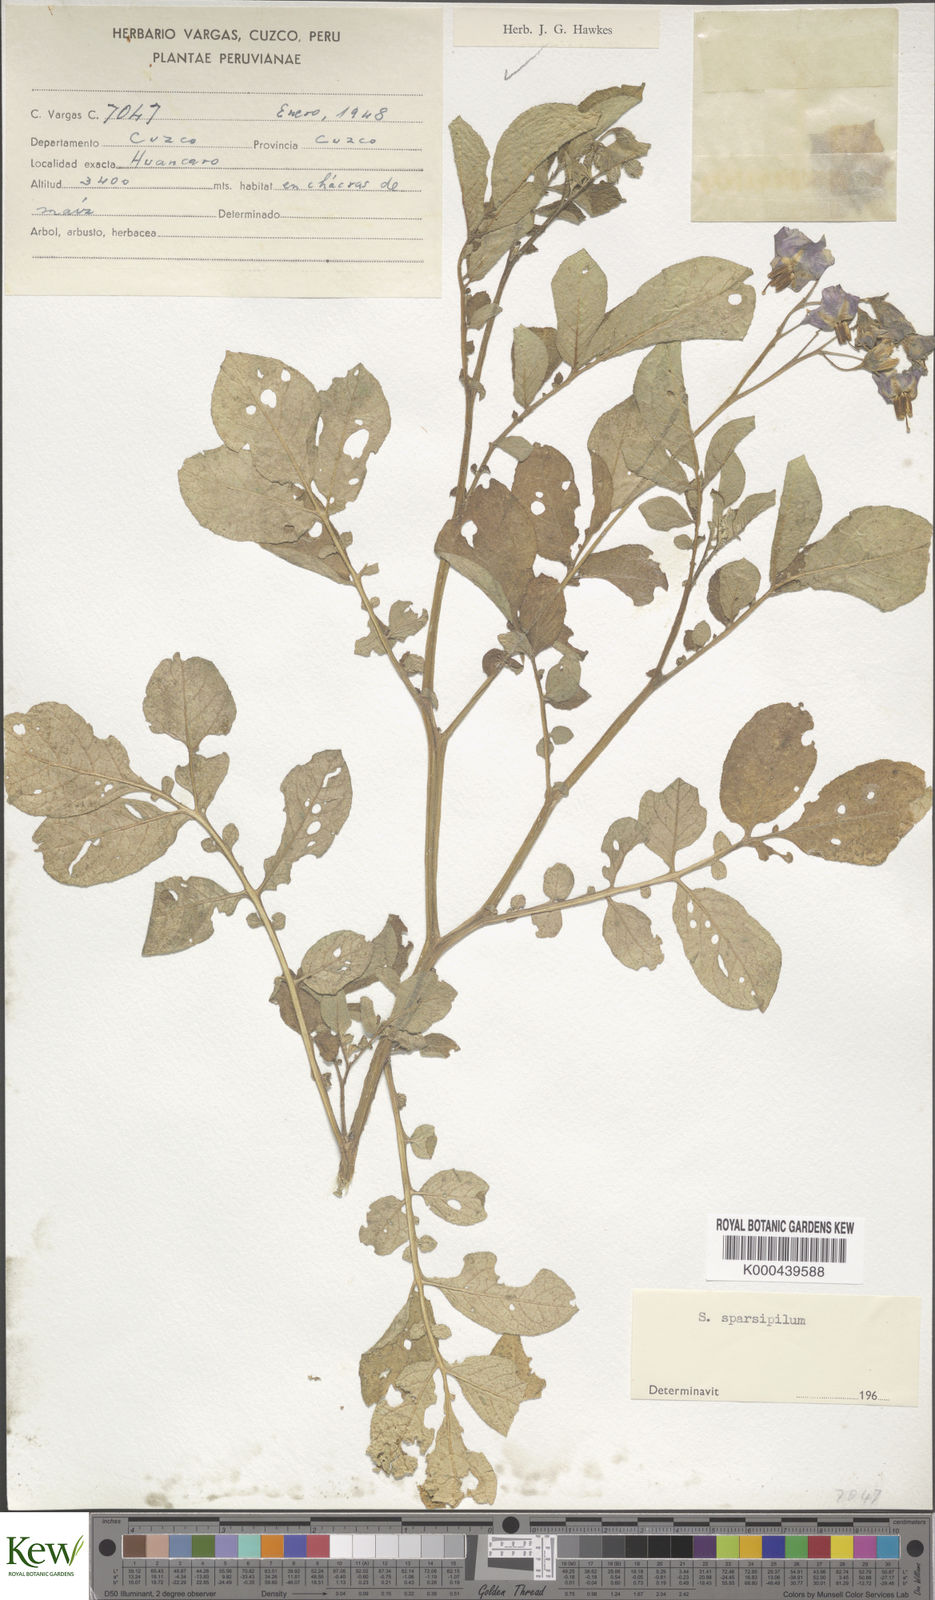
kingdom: Plantae
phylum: Tracheophyta
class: Magnoliopsida
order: Solanales
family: Solanaceae
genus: Solanum
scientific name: Solanum brevicaule
